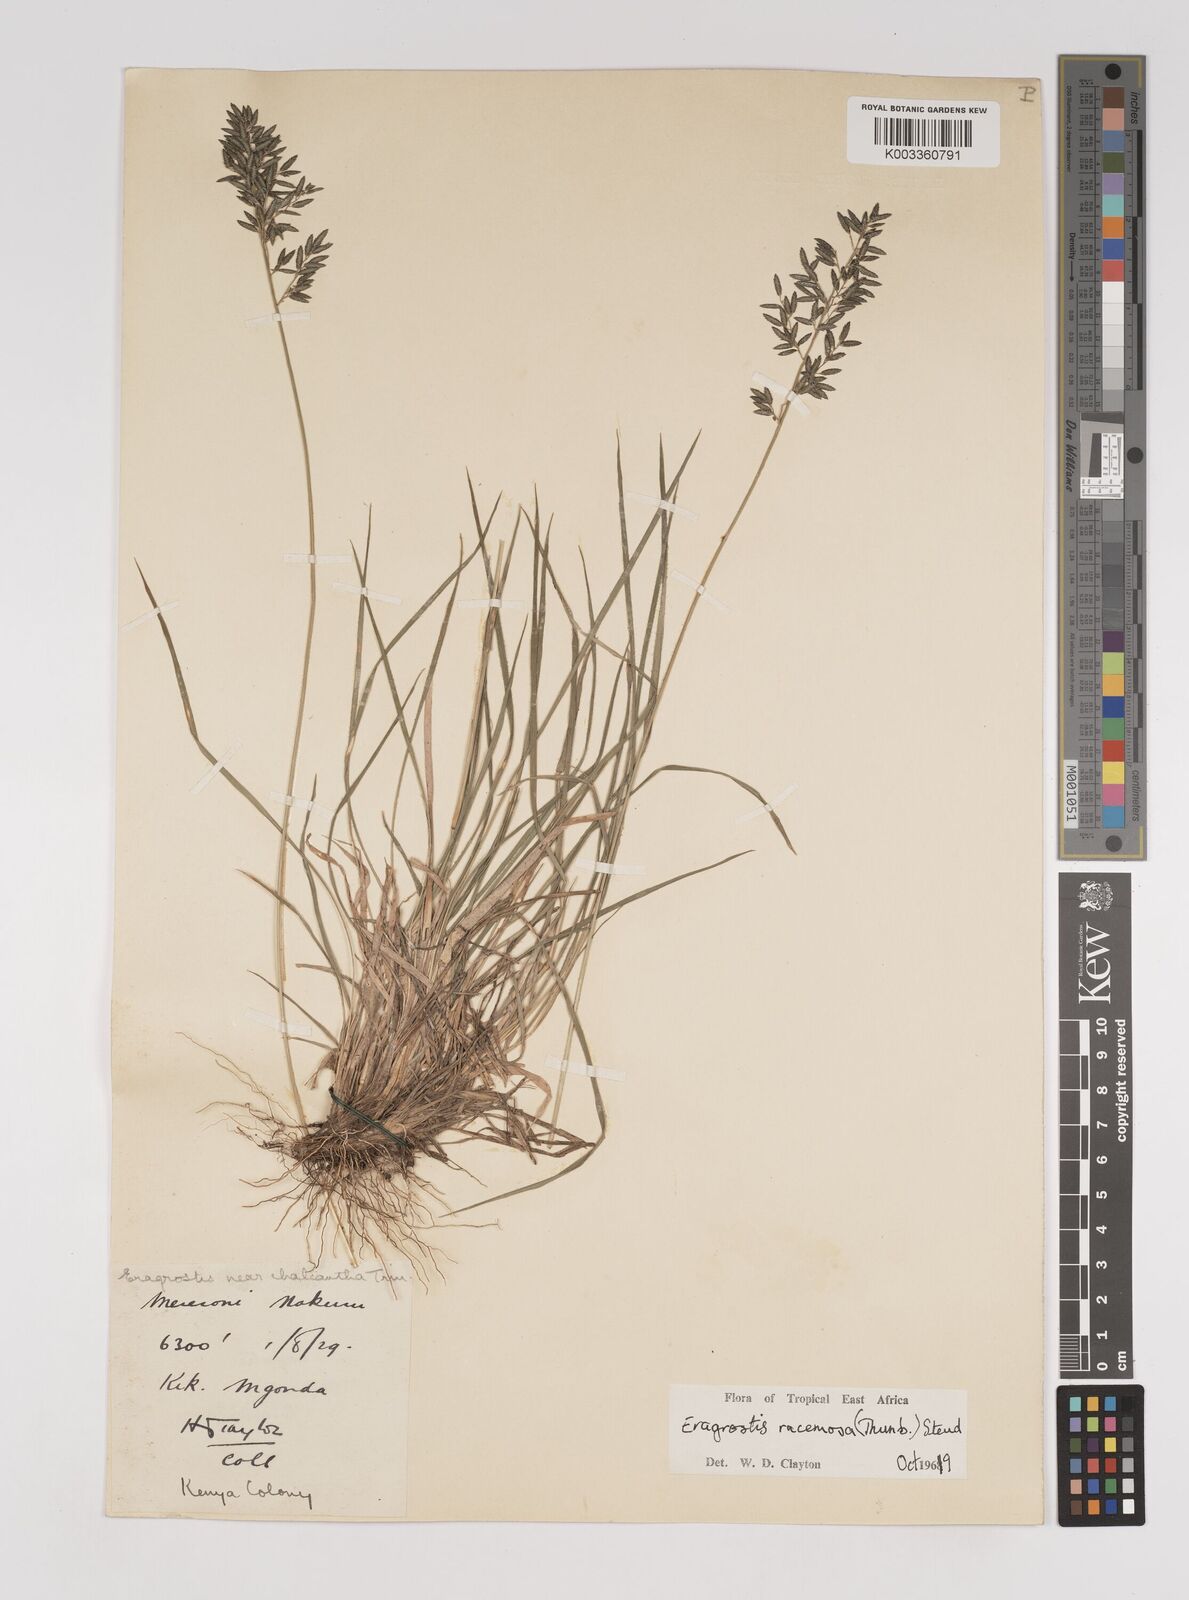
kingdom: Plantae
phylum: Tracheophyta
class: Liliopsida
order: Poales
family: Poaceae
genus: Eragrostis
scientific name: Eragrostis racemosa
